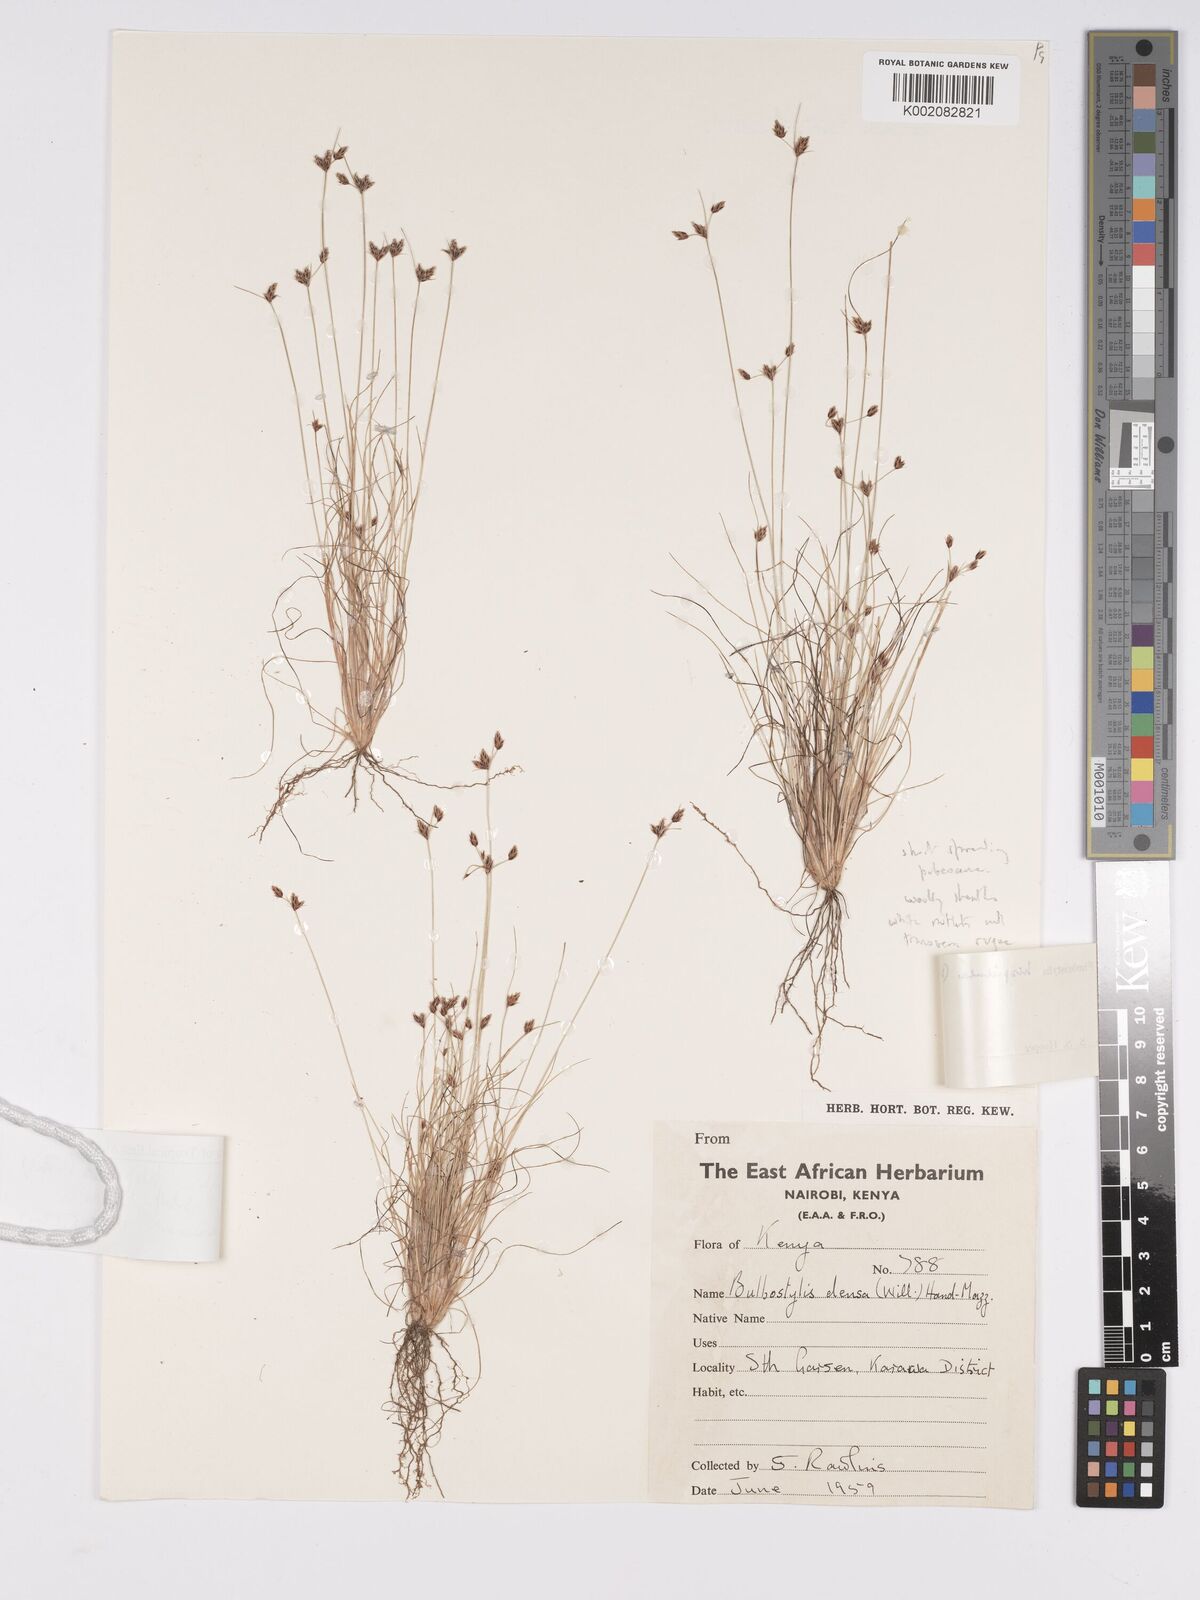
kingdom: Plantae
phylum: Tracheophyta
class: Liliopsida
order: Poales
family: Cyperaceae
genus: Bulbostylis
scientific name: Bulbostylis hispidula
